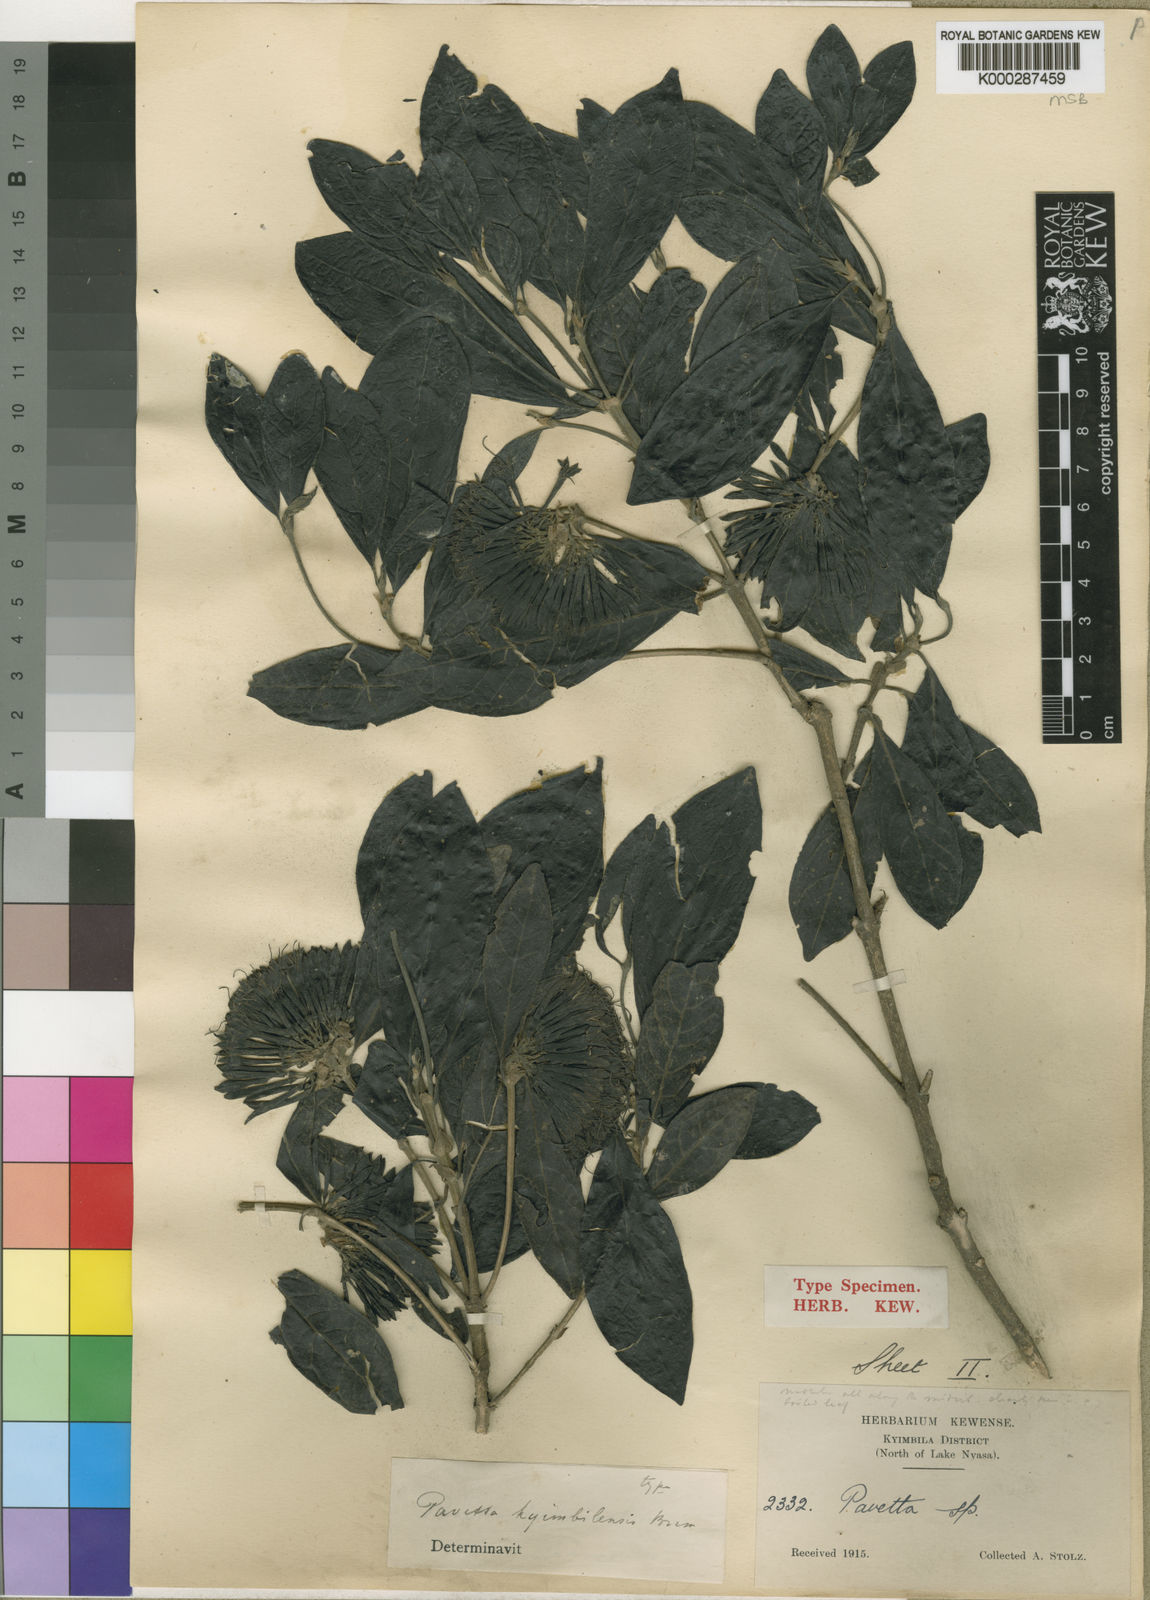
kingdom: Plantae
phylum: Tracheophyta
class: Magnoliopsida
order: Gentianales
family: Rubiaceae
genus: Pavetta
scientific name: Pavetta kyimbilensis
